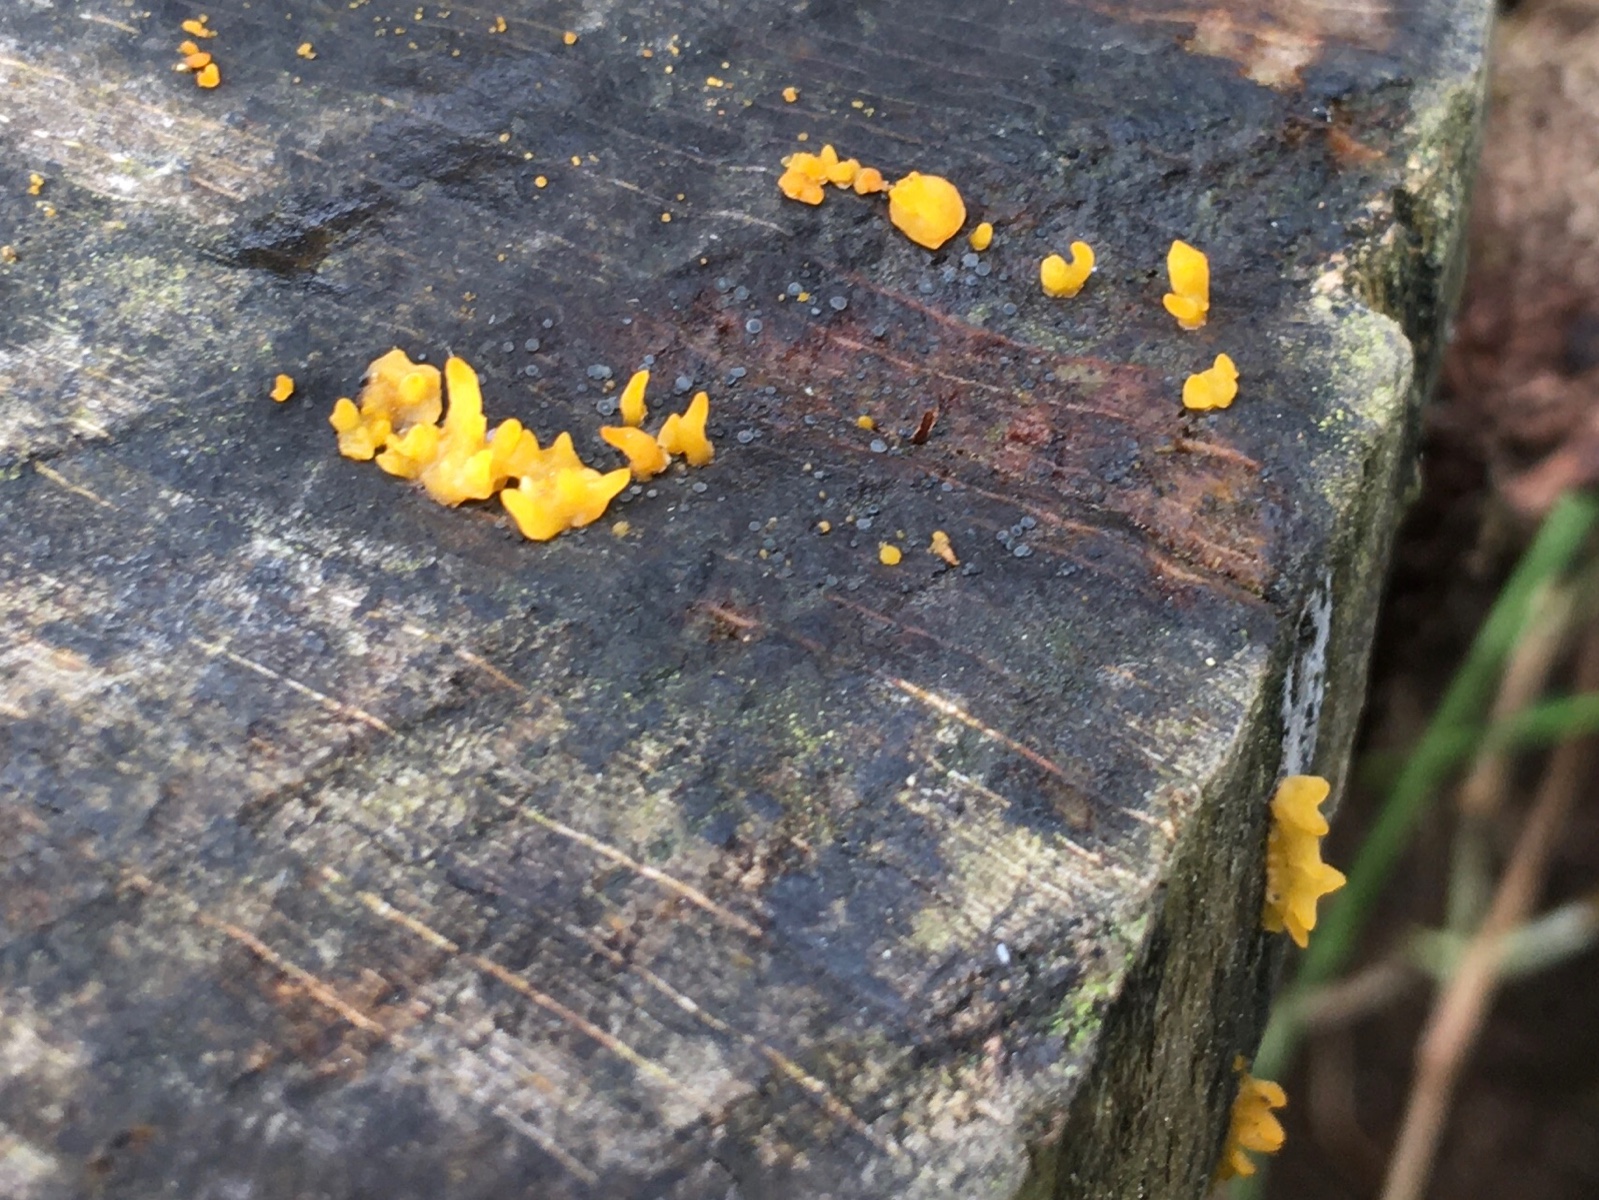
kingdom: Fungi
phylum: Basidiomycota
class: Dacrymycetes
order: Dacrymycetales
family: Dacrymycetaceae
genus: Calocera
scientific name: Calocera cornea
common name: liden guldgaffel
